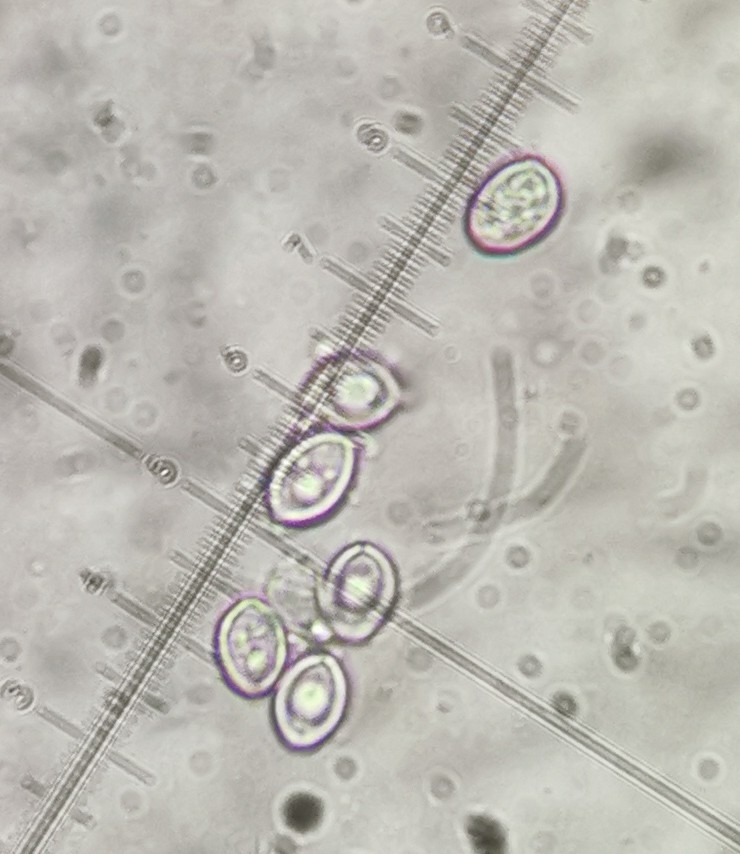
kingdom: Fungi
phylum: Basidiomycota
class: Agaricomycetes
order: Agaricales
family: Agaricaceae
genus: Chlorophyllum
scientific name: Chlorophyllum rhacodes
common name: ægte rabarberhat
